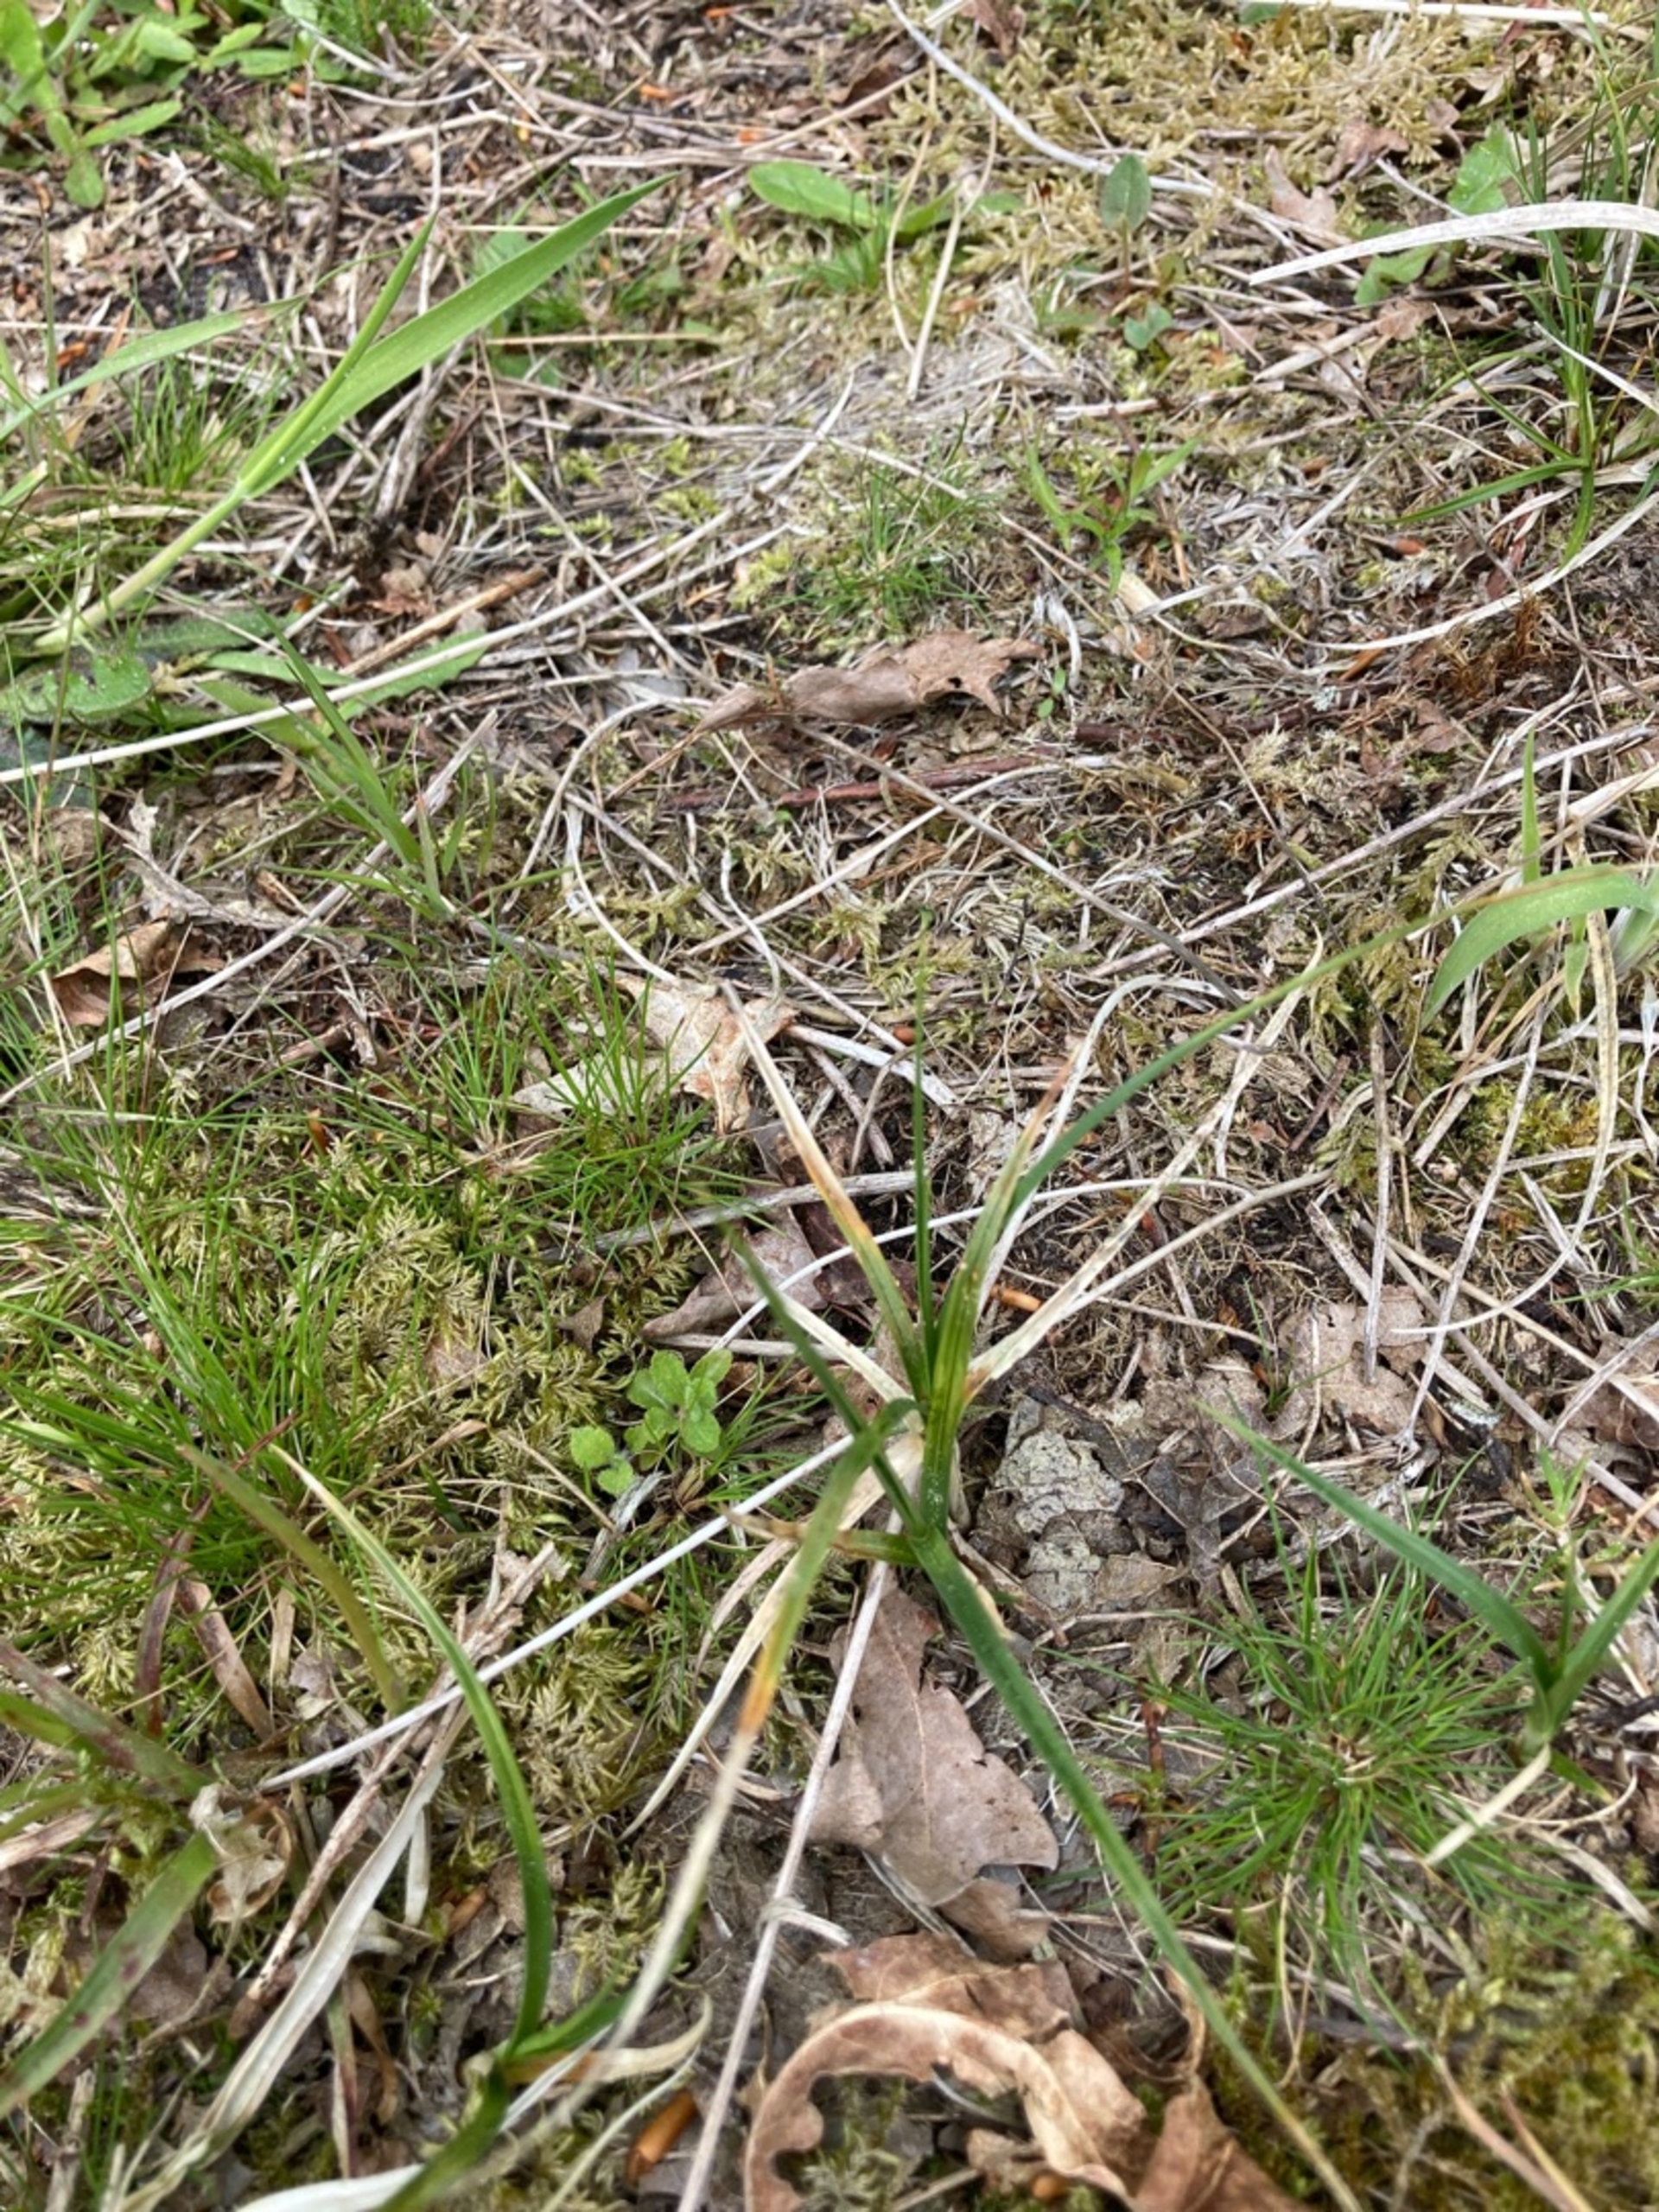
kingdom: Plantae
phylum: Tracheophyta
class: Liliopsida
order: Poales
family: Cyperaceae
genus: Carex
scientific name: Carex arenaria
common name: Sand-star
